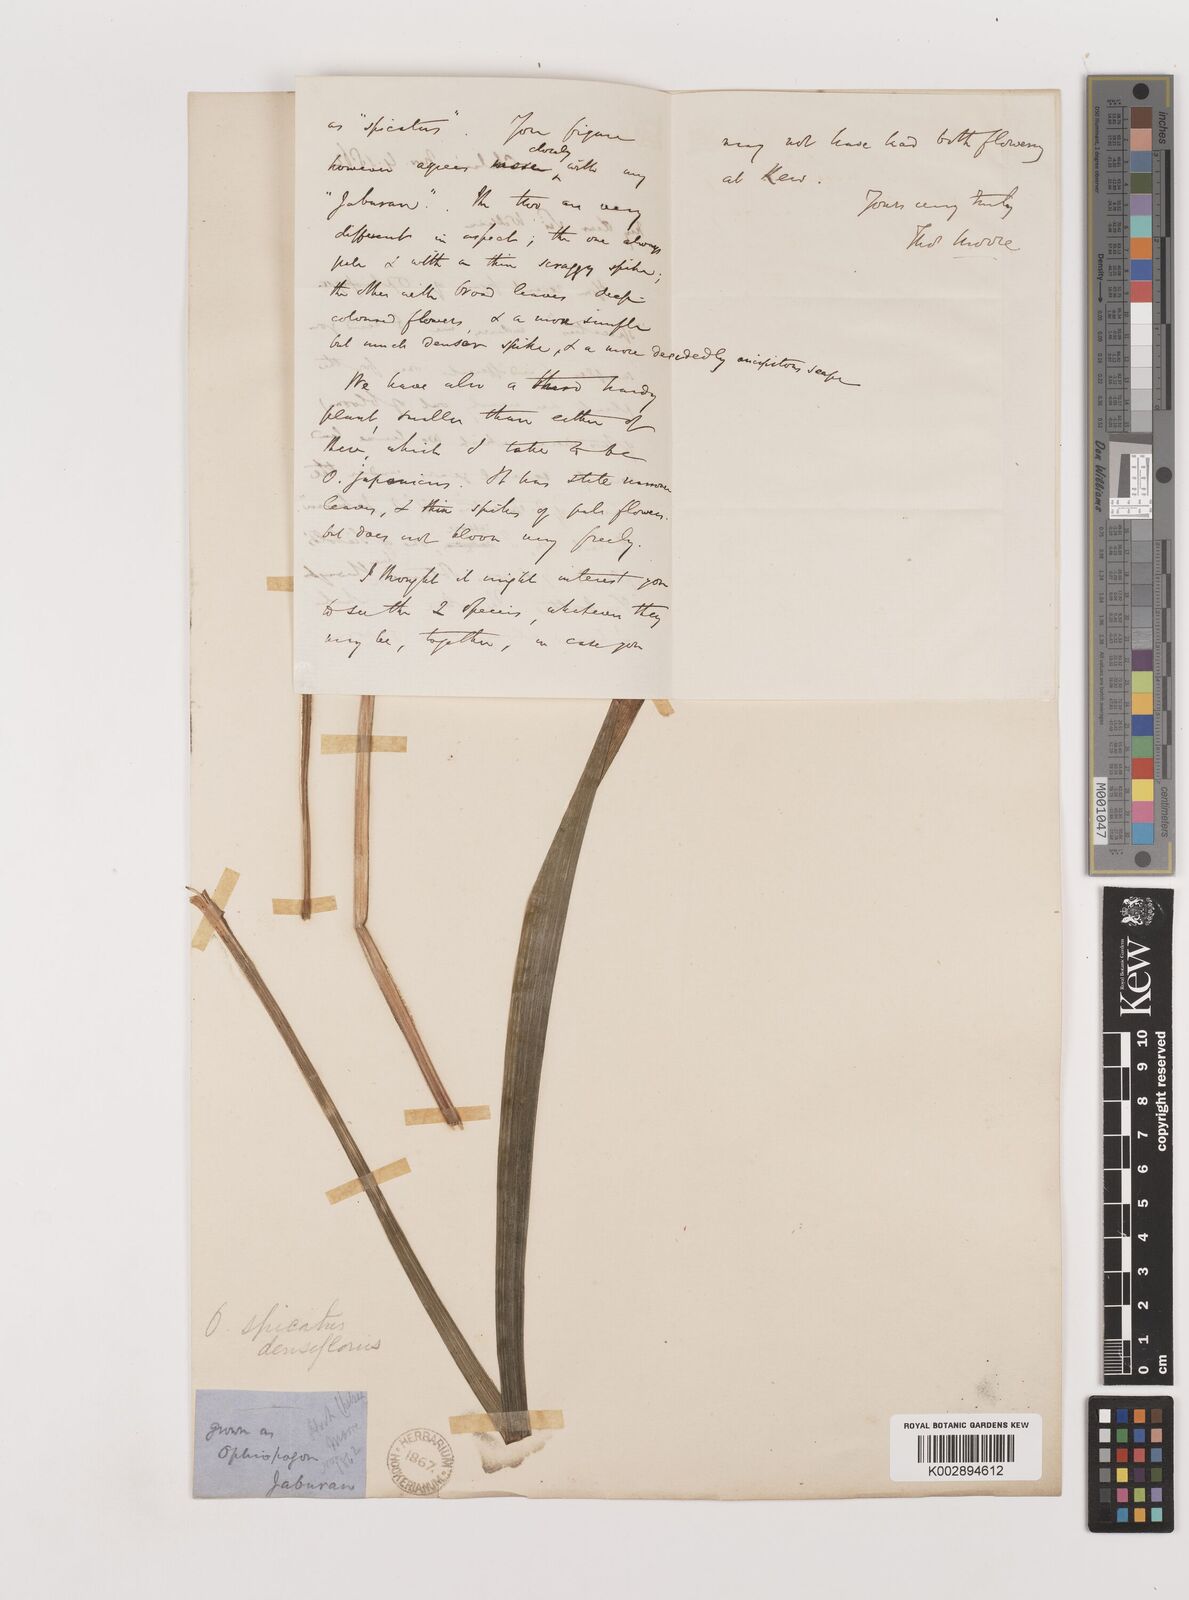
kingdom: Plantae
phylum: Tracheophyta
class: Liliopsida
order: Asparagales
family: Asparagaceae
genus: Liriope
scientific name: Liriope muscari
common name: Big blue lilyturf
